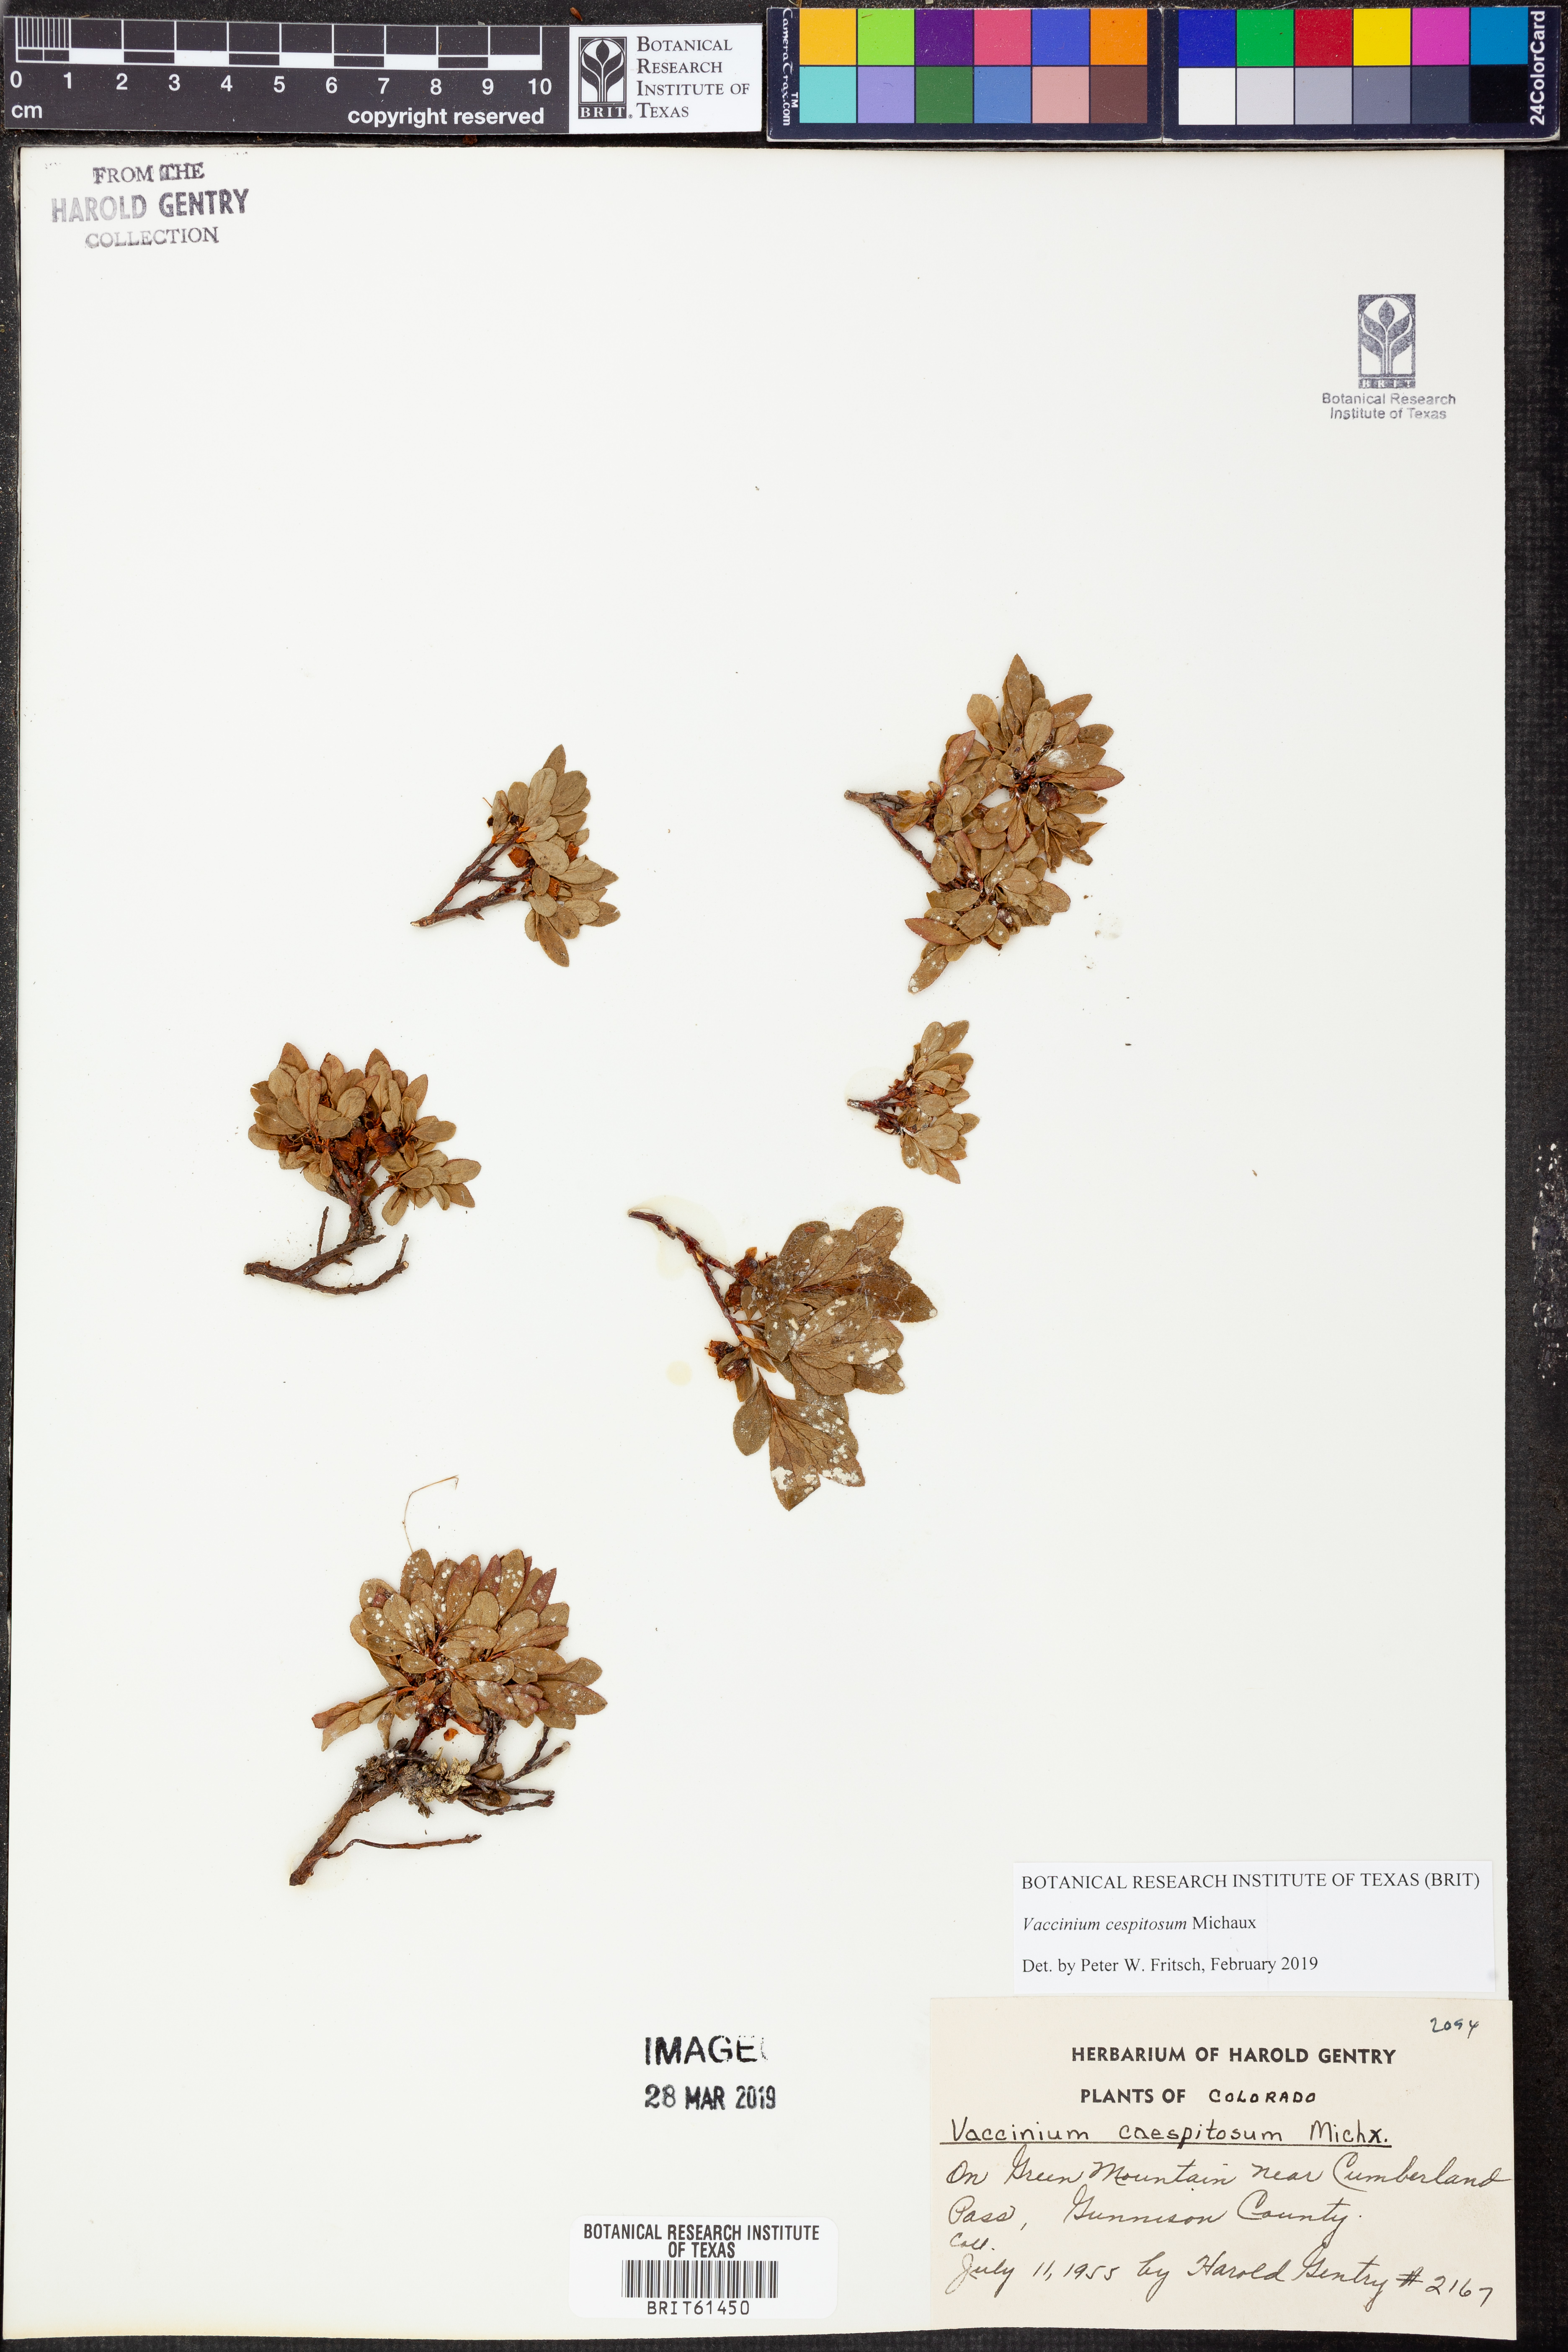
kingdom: Plantae
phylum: Tracheophyta
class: Magnoliopsida
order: Ericales
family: Ericaceae
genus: Vaccinium
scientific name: Vaccinium cespitosum
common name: Dwarf bilberry
